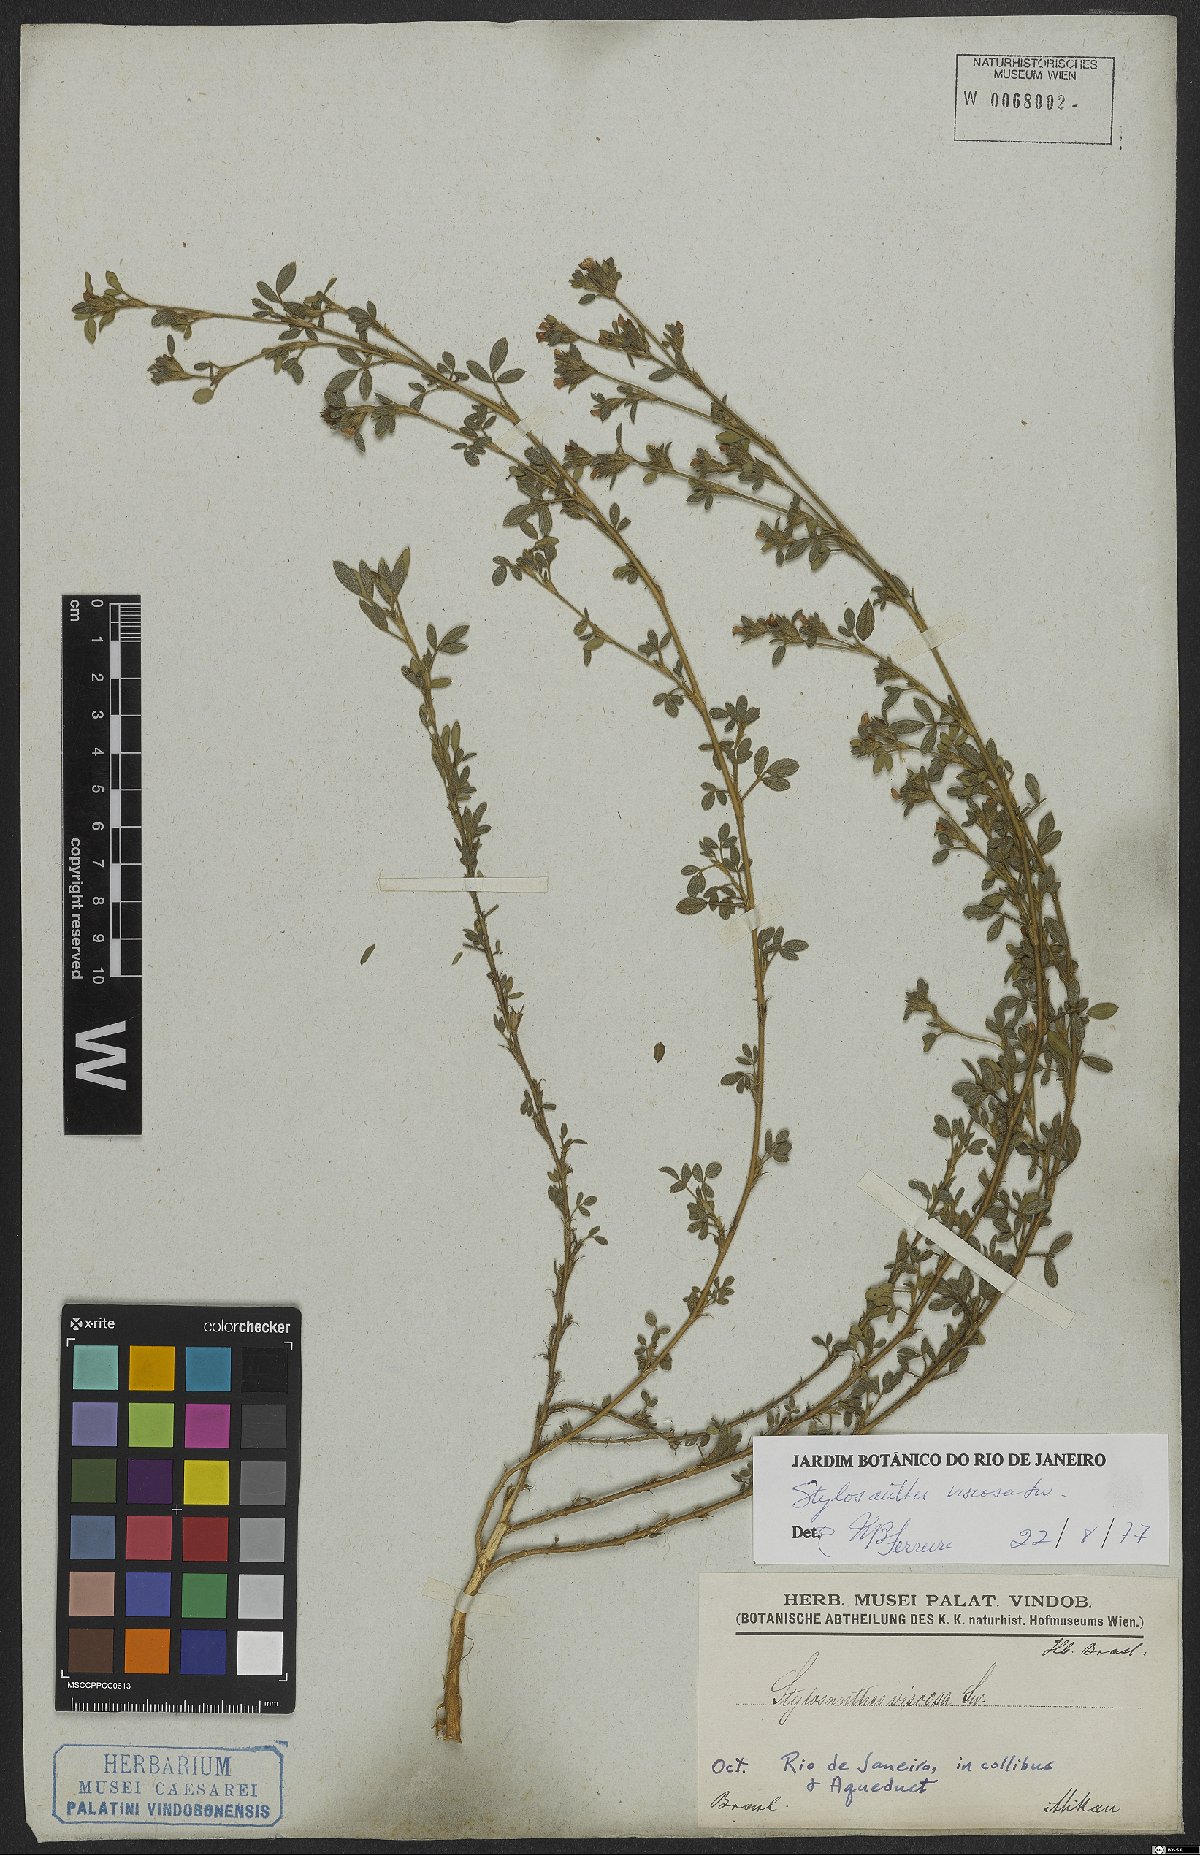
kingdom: Plantae
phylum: Tracheophyta
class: Magnoliopsida
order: Fabales
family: Fabaceae
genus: Stylosanthes
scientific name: Stylosanthes viscosa
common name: Viscid pencil-flower
